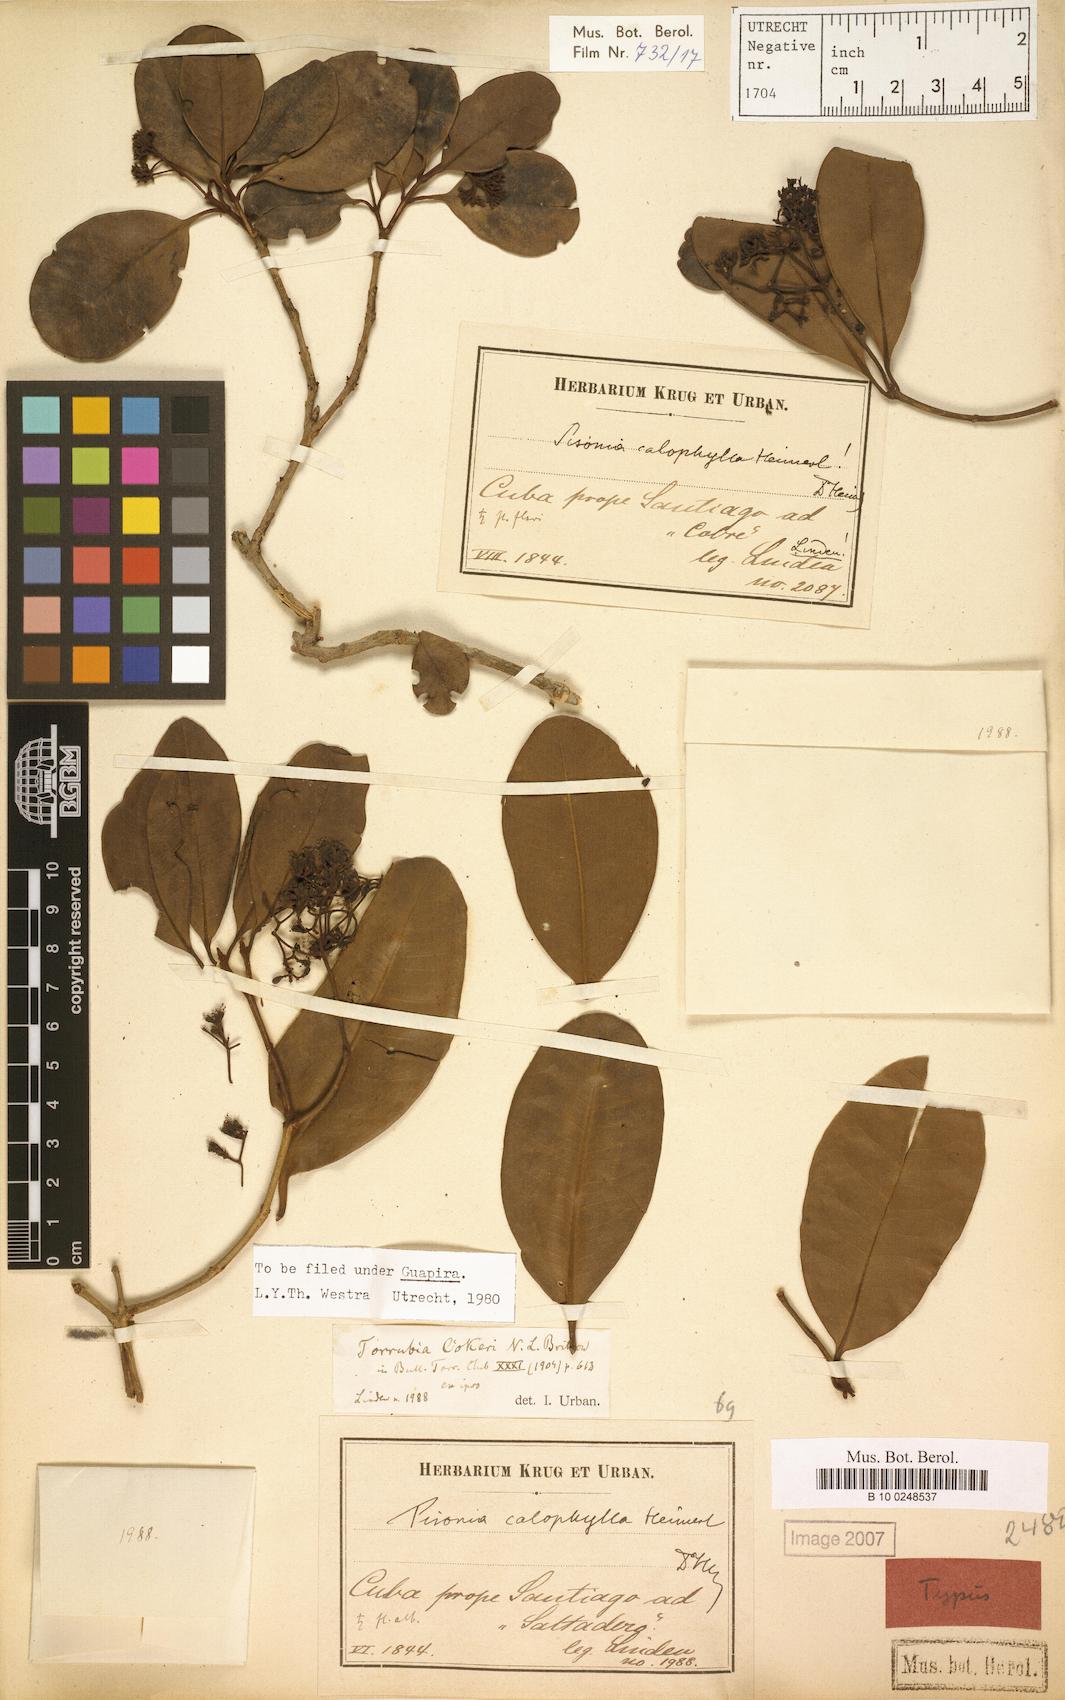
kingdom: Plantae
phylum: Tracheophyta
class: Magnoliopsida
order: Caryophyllales
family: Nyctaginaceae
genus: Guapira
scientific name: Guapira obtusata
